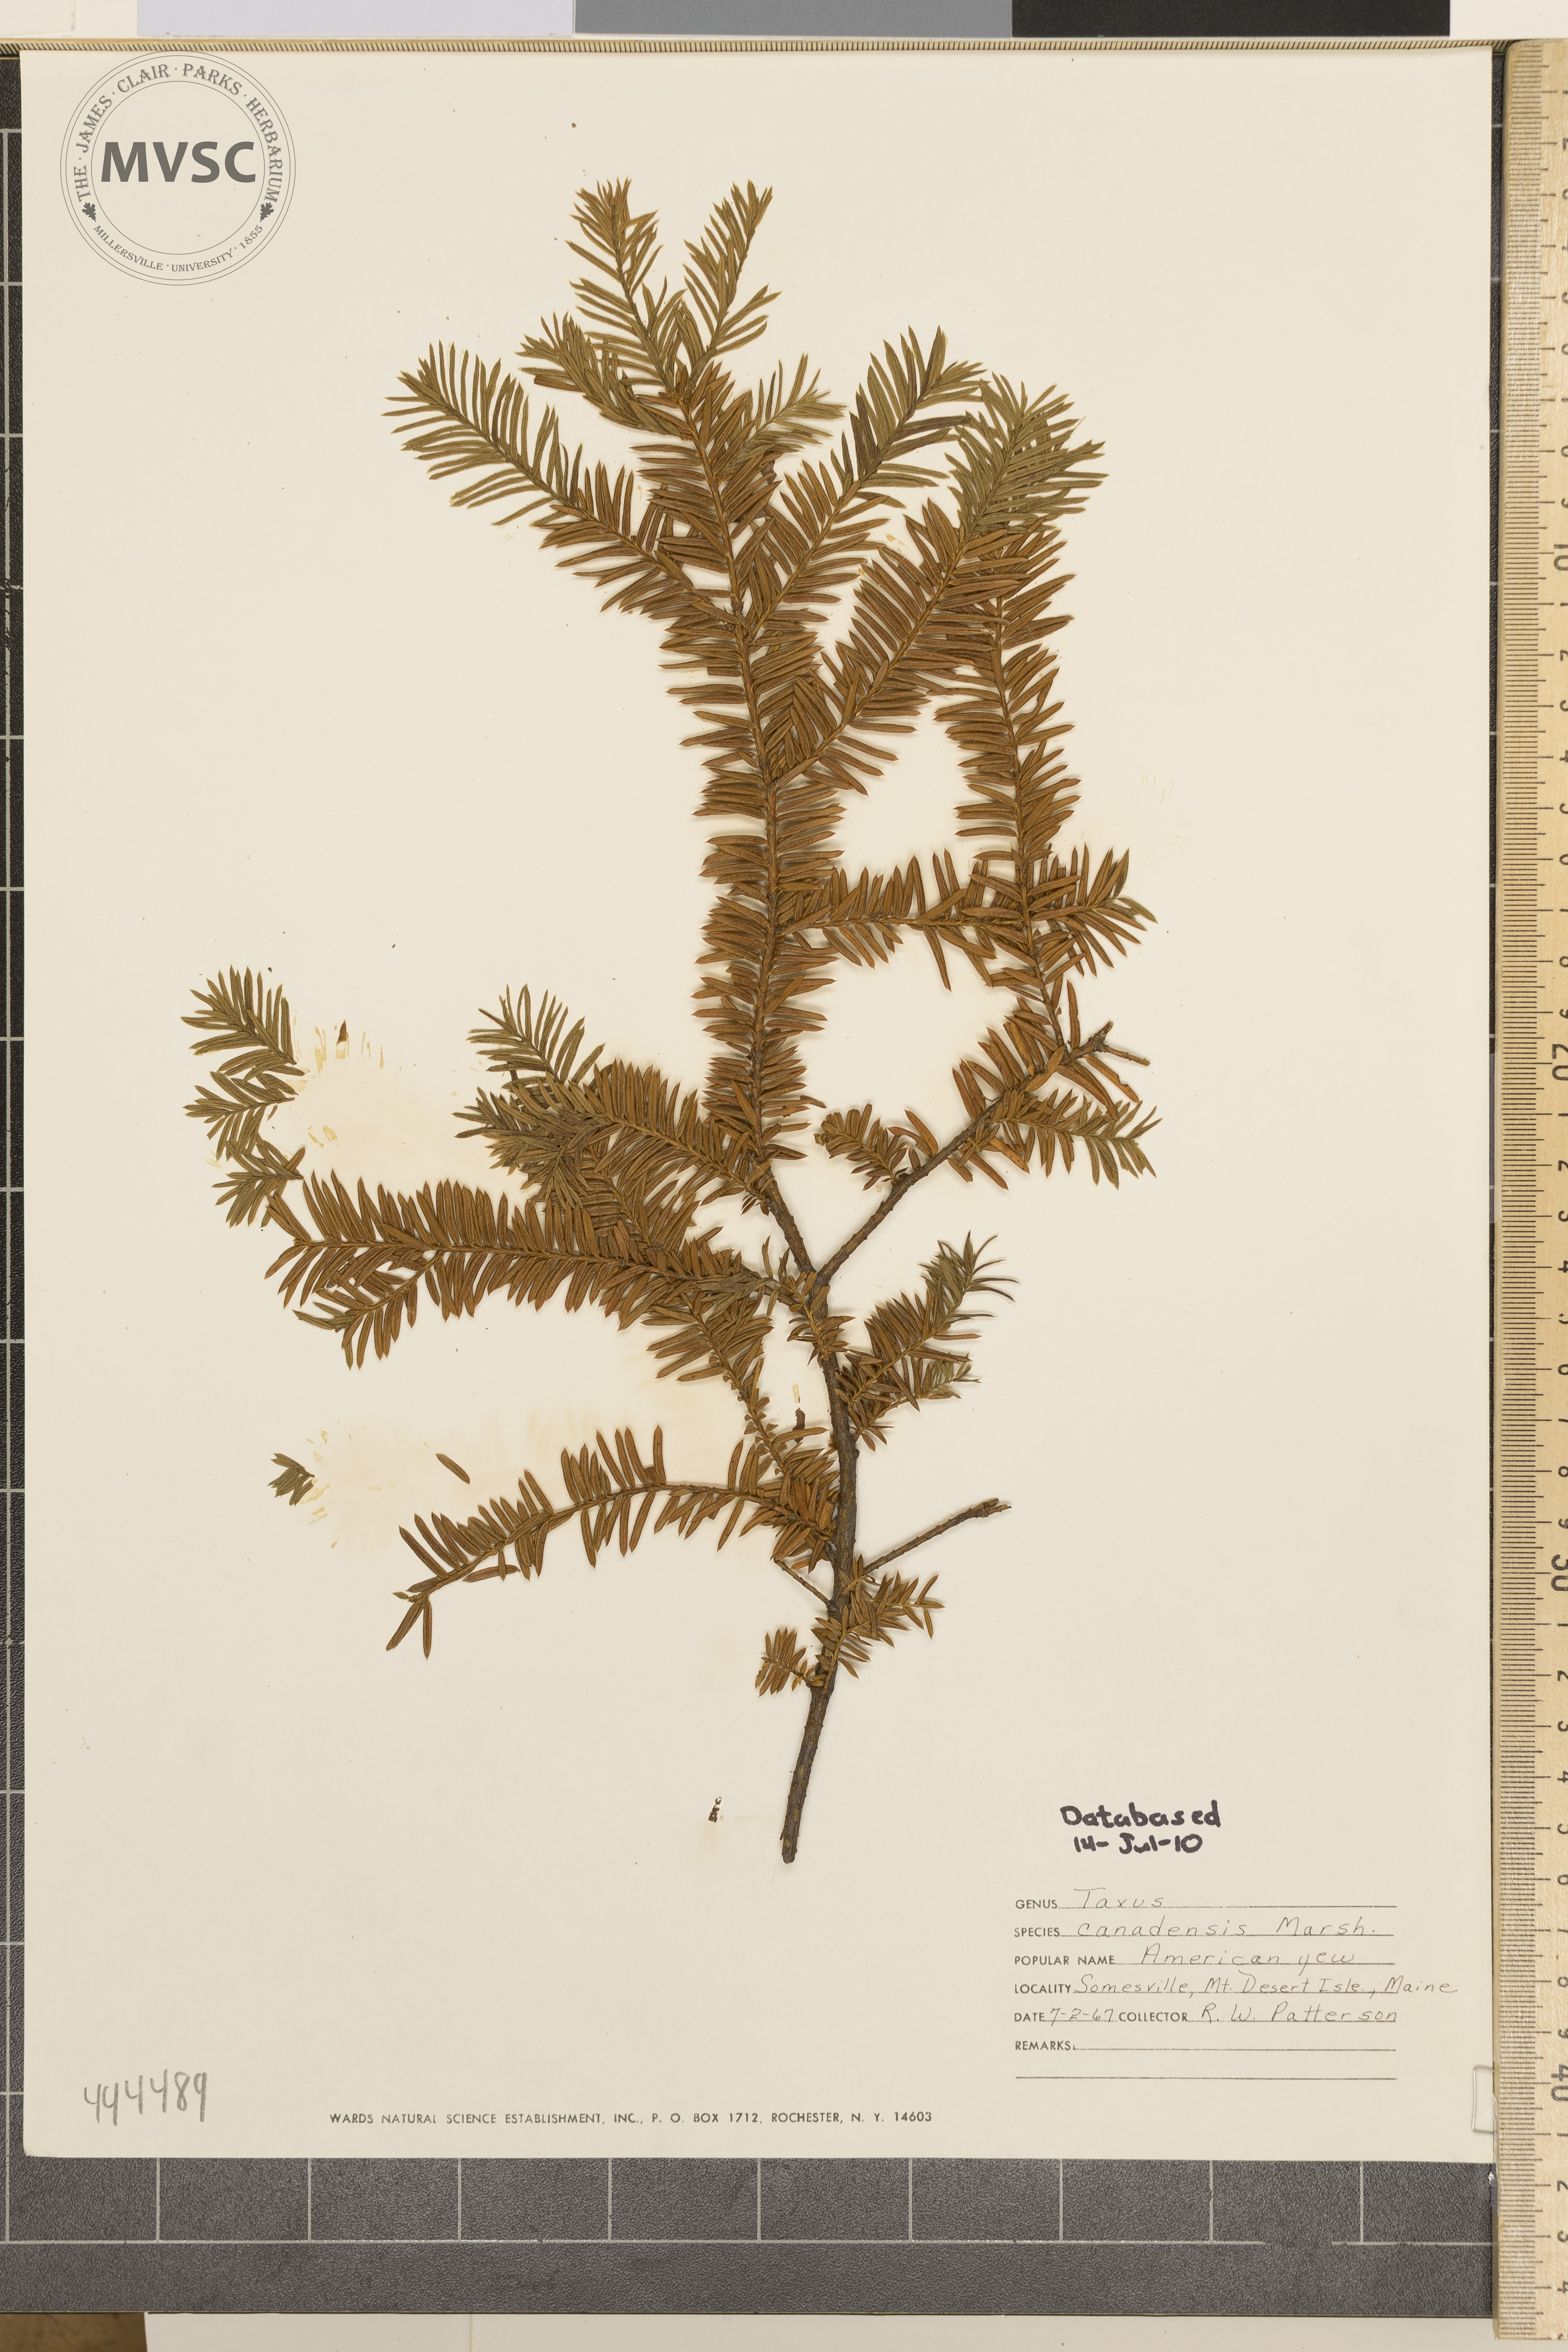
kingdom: Plantae
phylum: Tracheophyta
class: Pinopsida
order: Pinales
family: Taxaceae
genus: Taxus
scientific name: Taxus canadensis
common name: American yew
